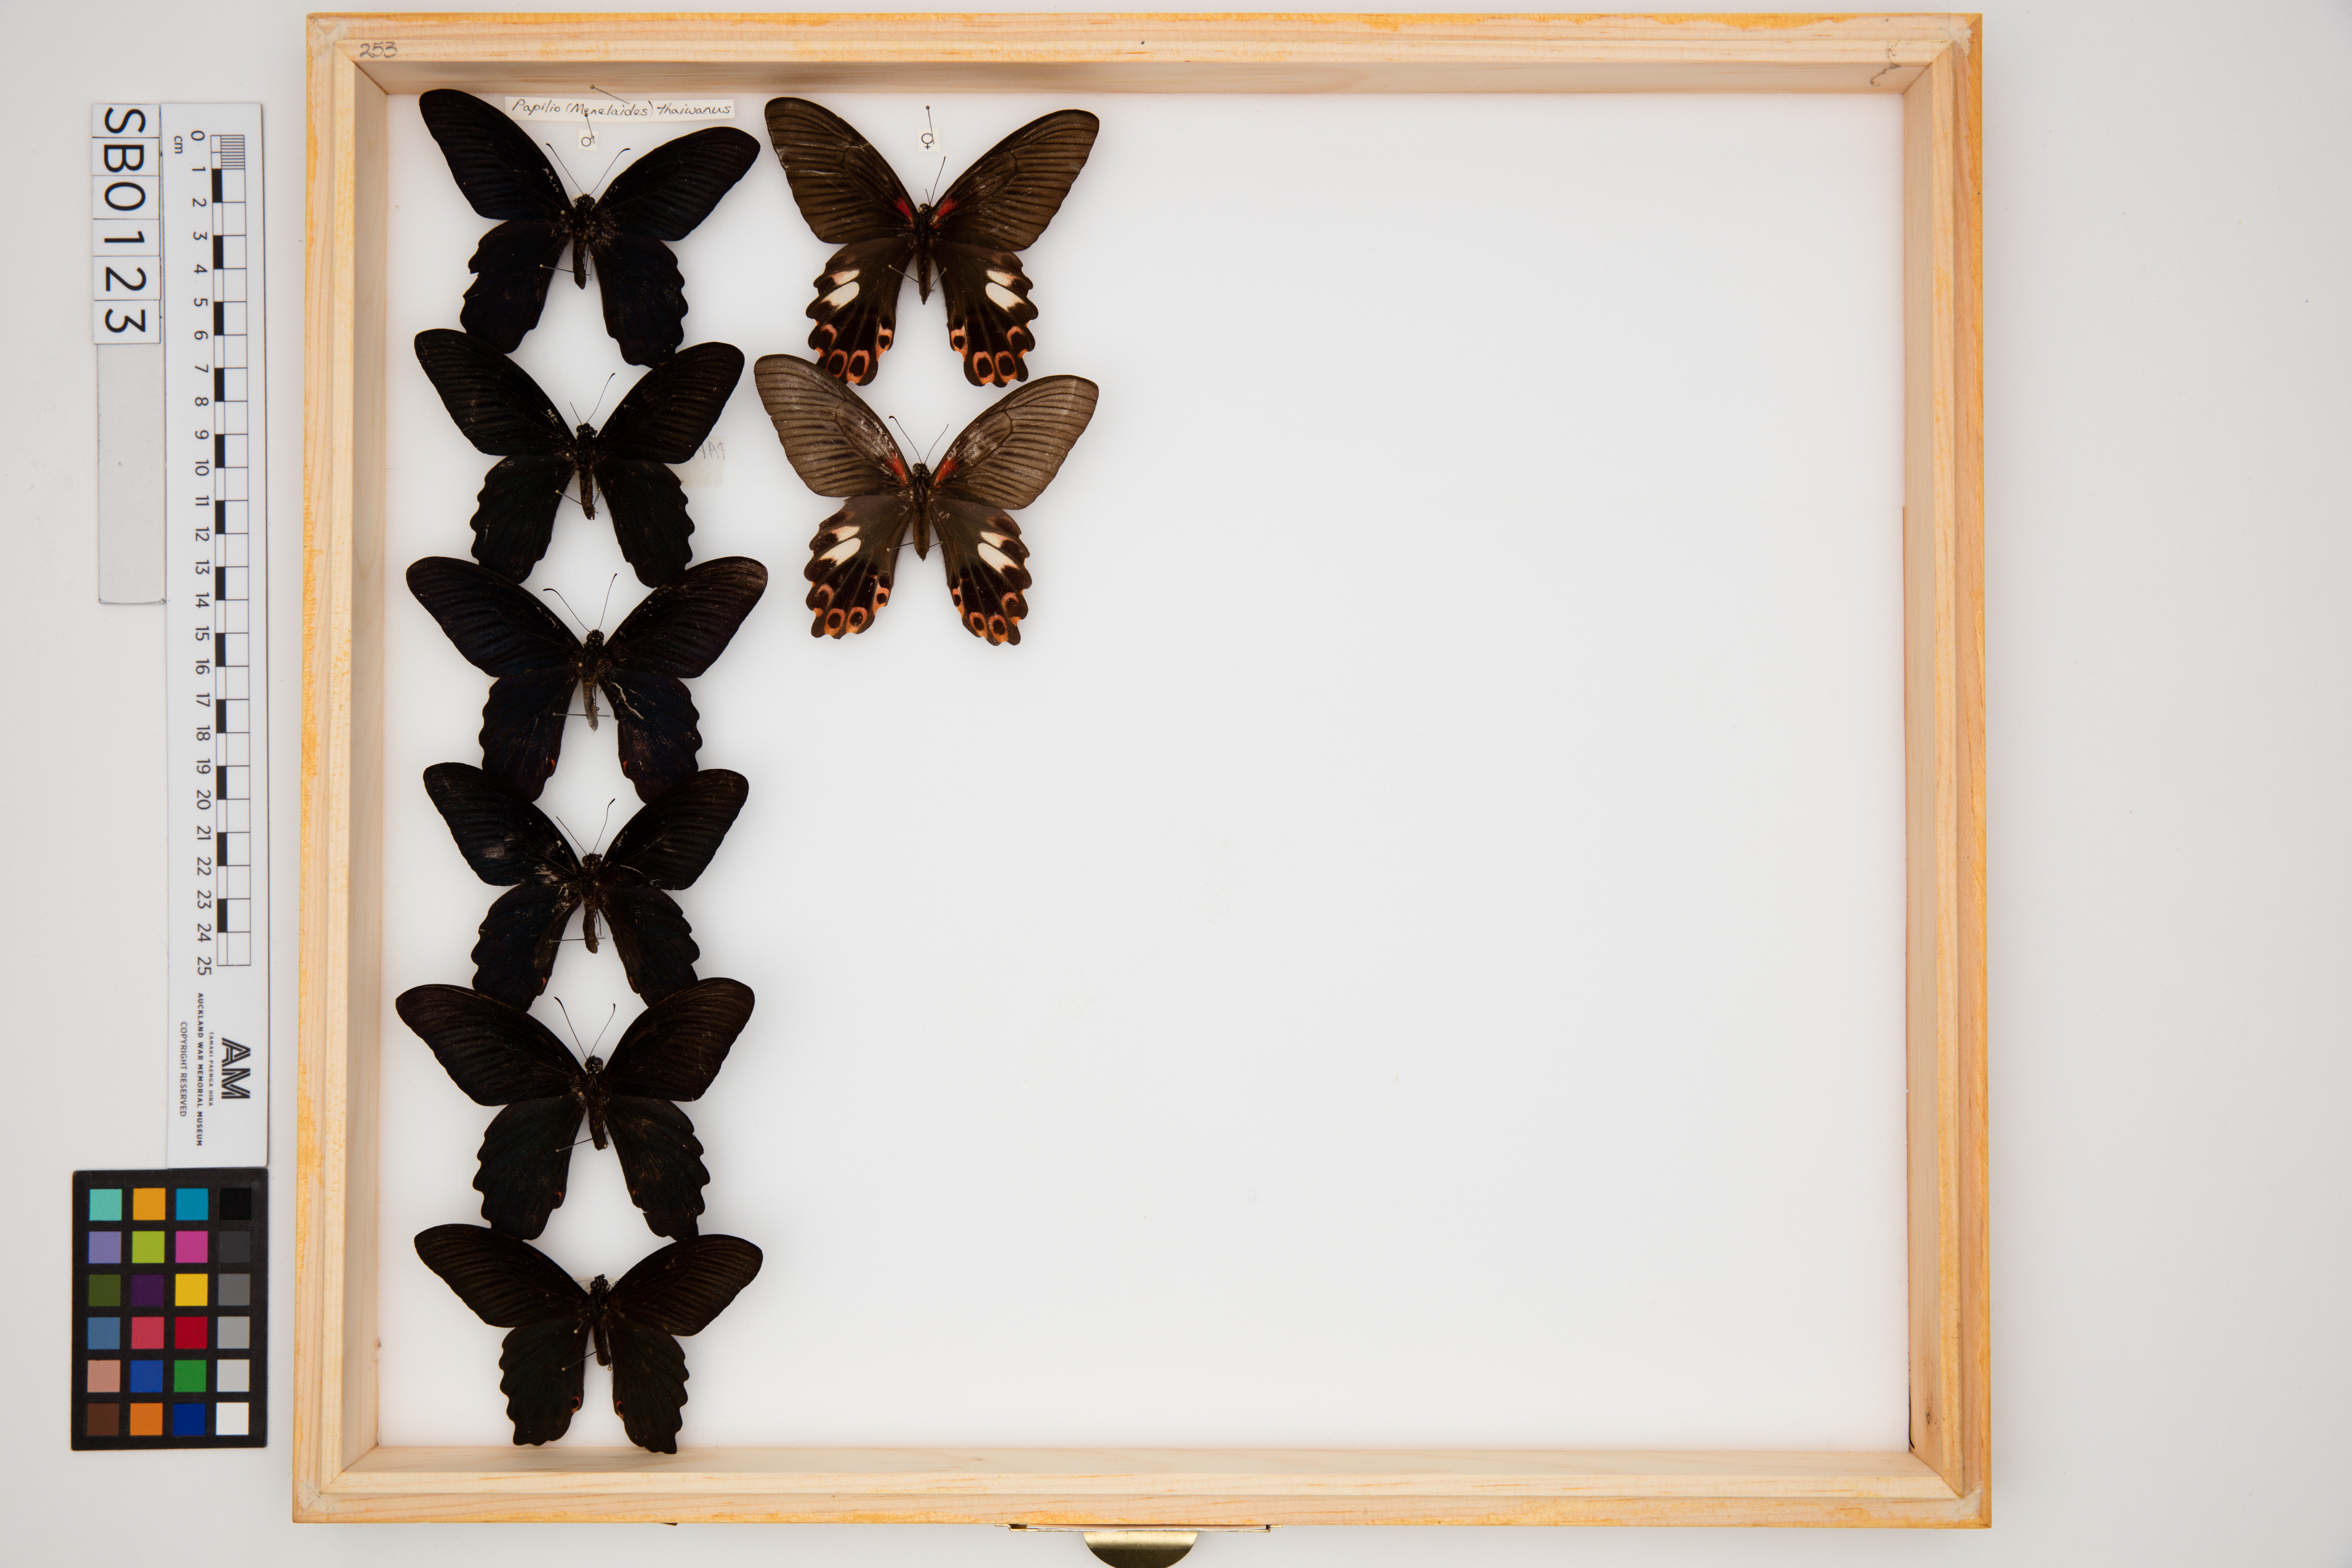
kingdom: Animalia
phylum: Arthropoda
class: Insecta
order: Lepidoptera
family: Papilionidae
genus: Papilio
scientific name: Papilio thaiwanus
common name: Formosan swallowtail
